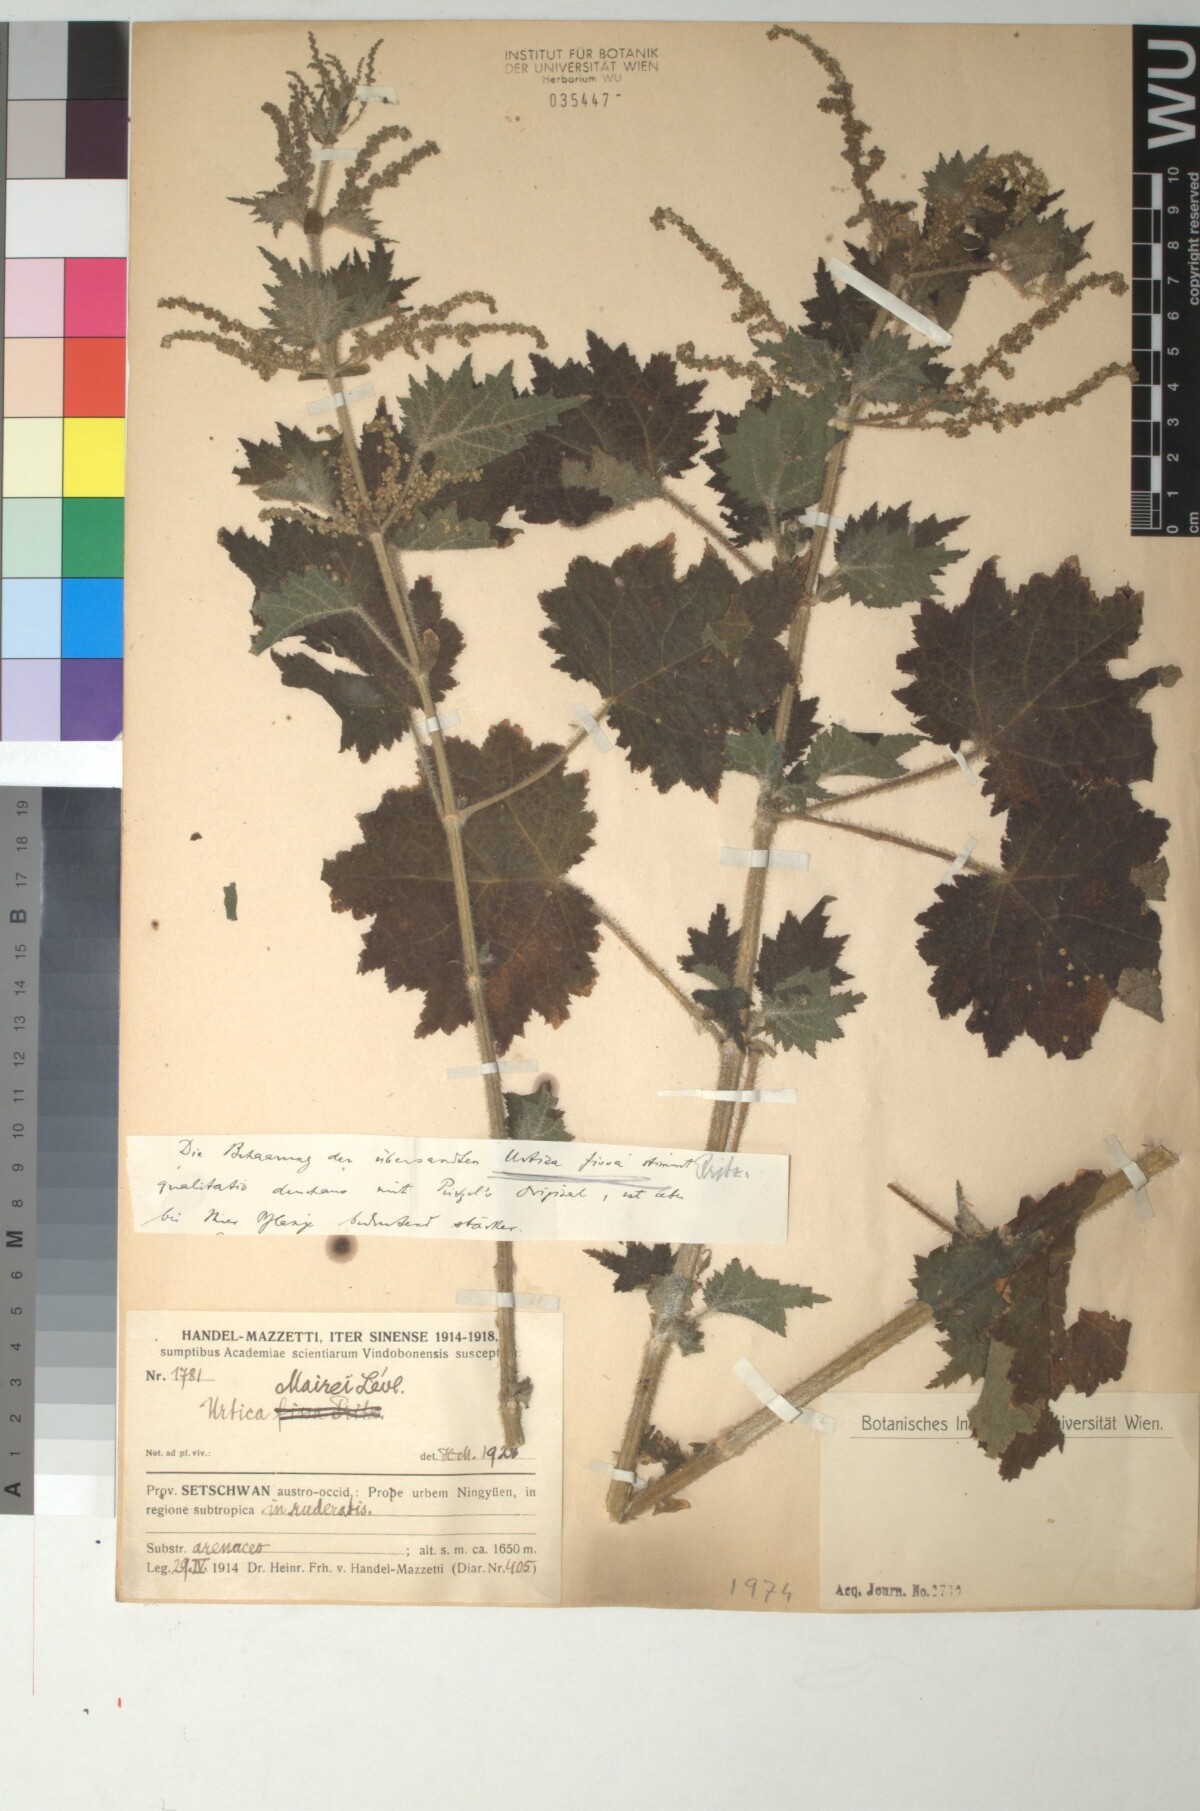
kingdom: Plantae
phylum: Tracheophyta
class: Magnoliopsida
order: Rosales
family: Urticaceae
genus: Urtica
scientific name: Urtica mairei
